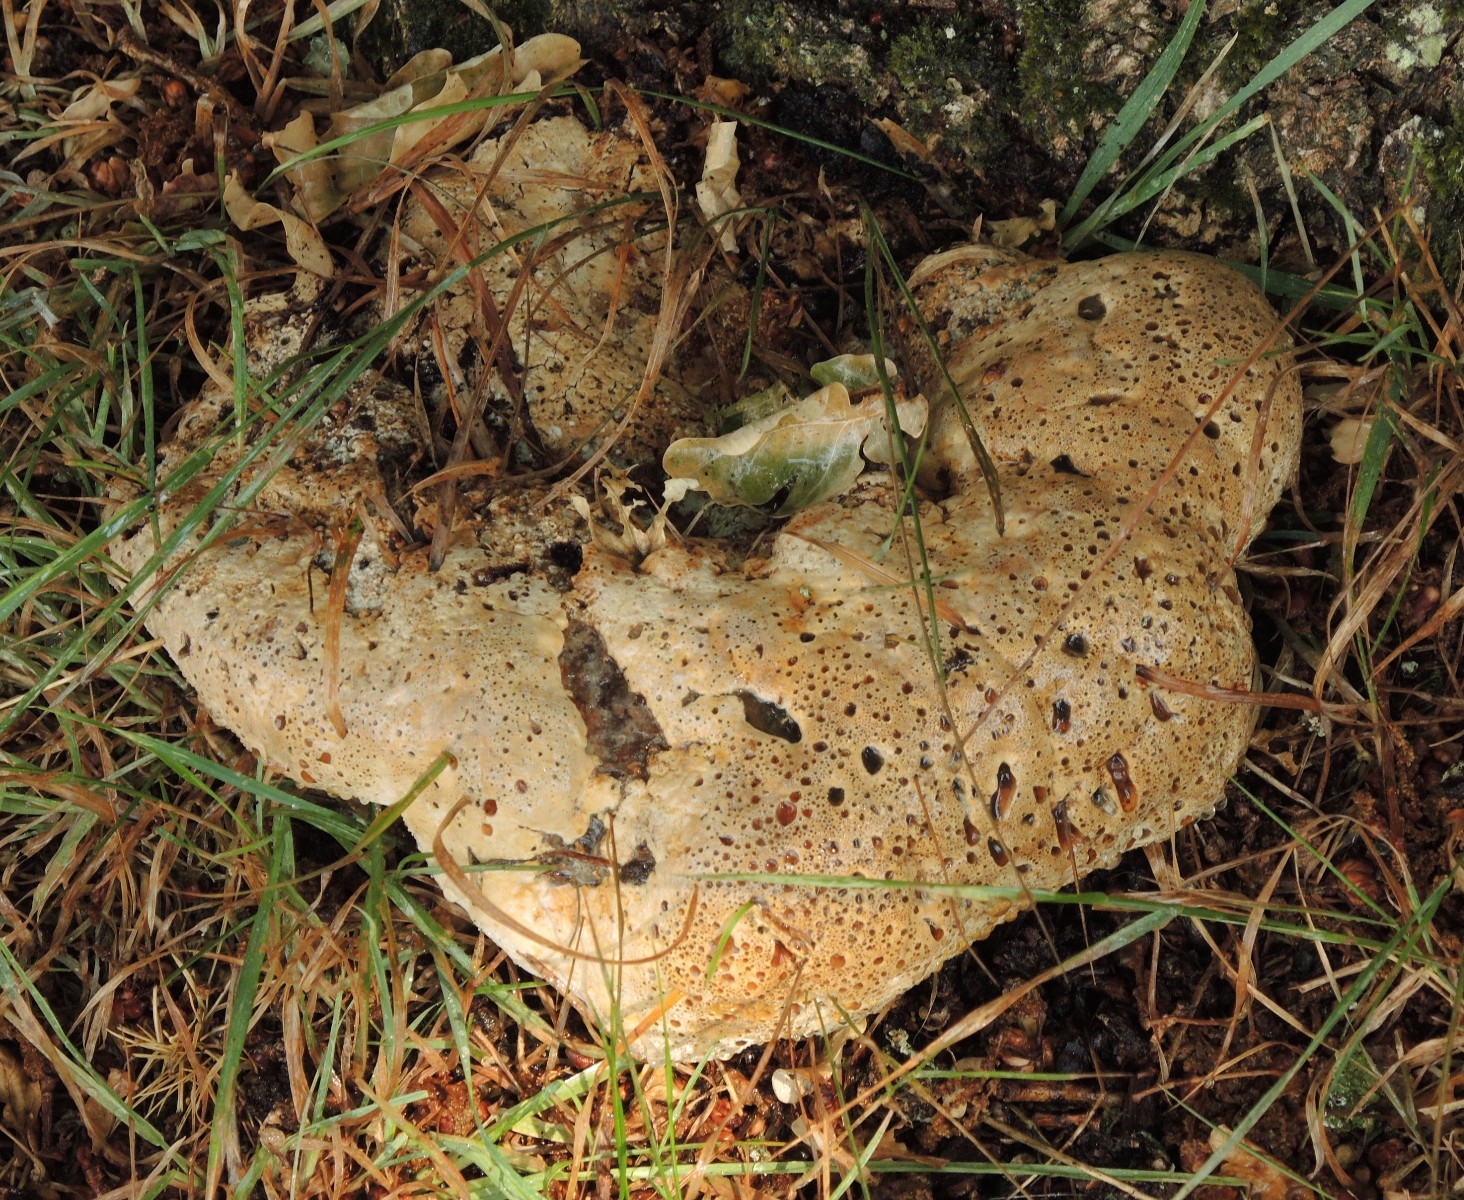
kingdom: Fungi
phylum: Basidiomycota
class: Agaricomycetes
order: Hymenochaetales
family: Hymenochaetaceae
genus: Pseudoinonotus
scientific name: Pseudoinonotus dryadeus
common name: ege-spejlporesvamp
